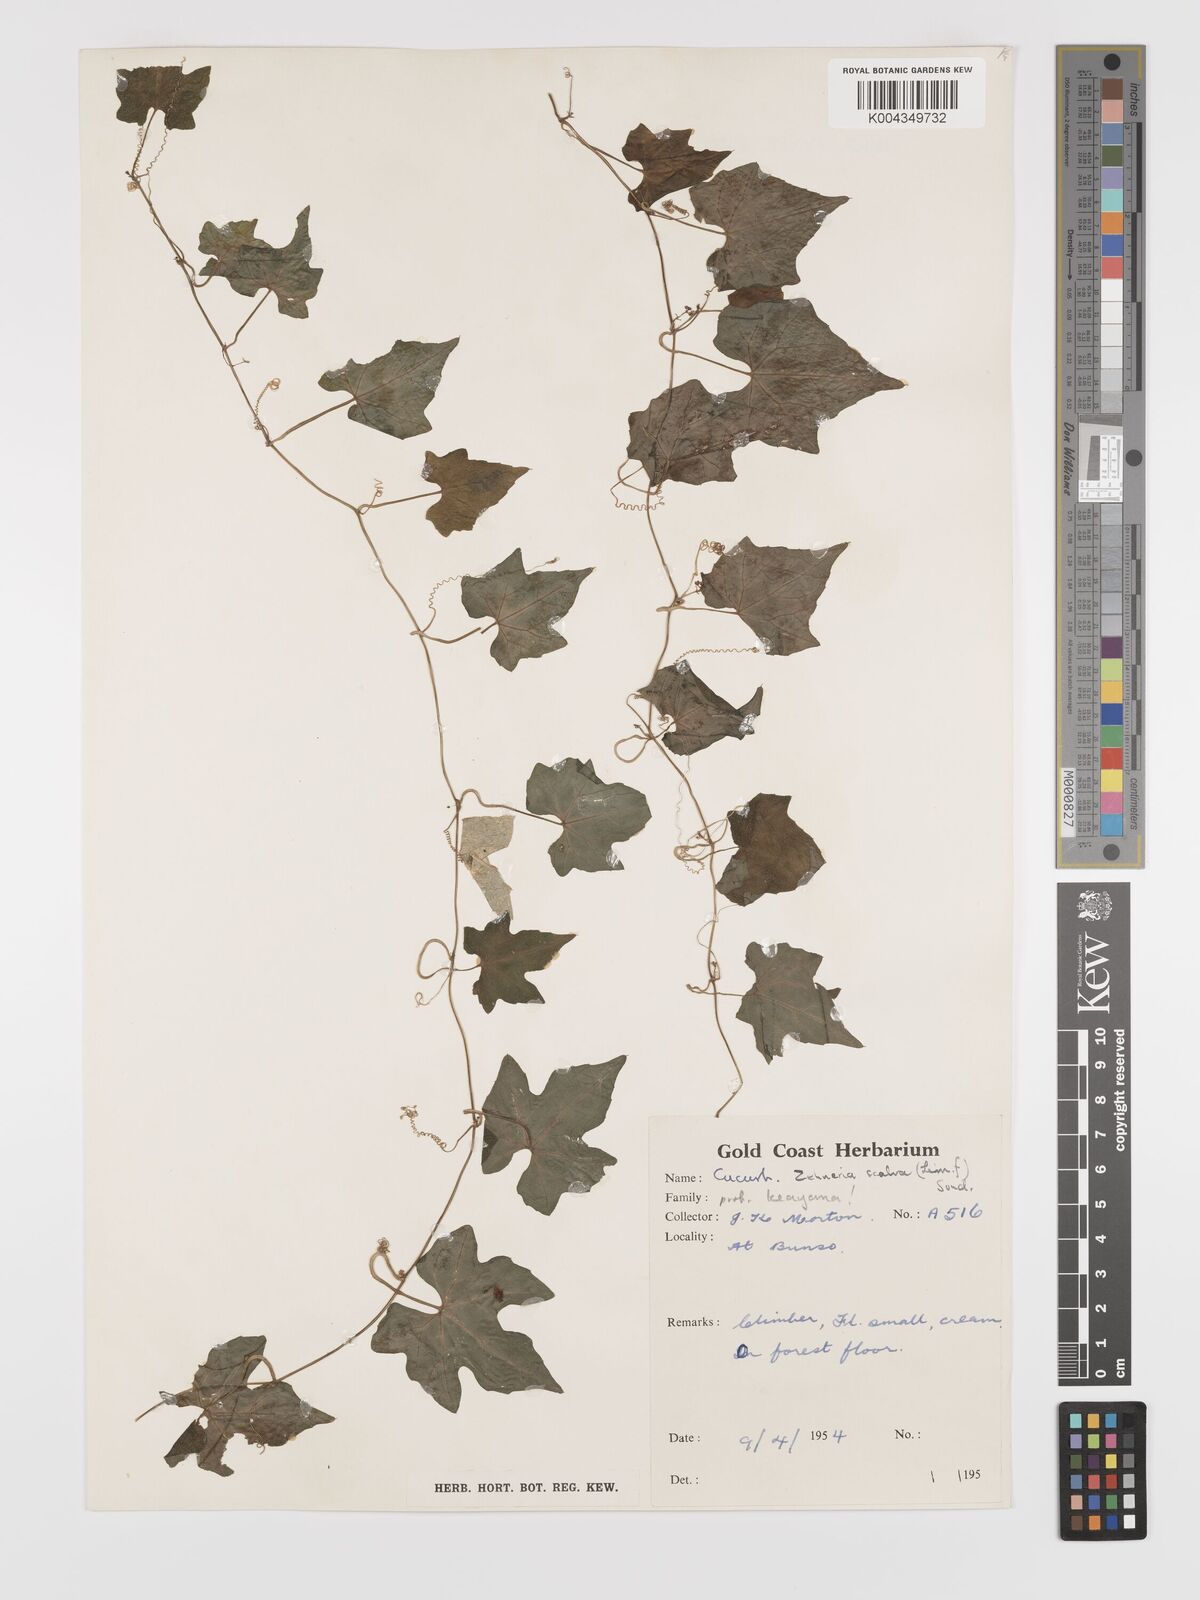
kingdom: Plantae
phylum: Tracheophyta
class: Magnoliopsida
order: Cucurbitales
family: Cucurbitaceae
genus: Zehneria
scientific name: Zehneria scabra
